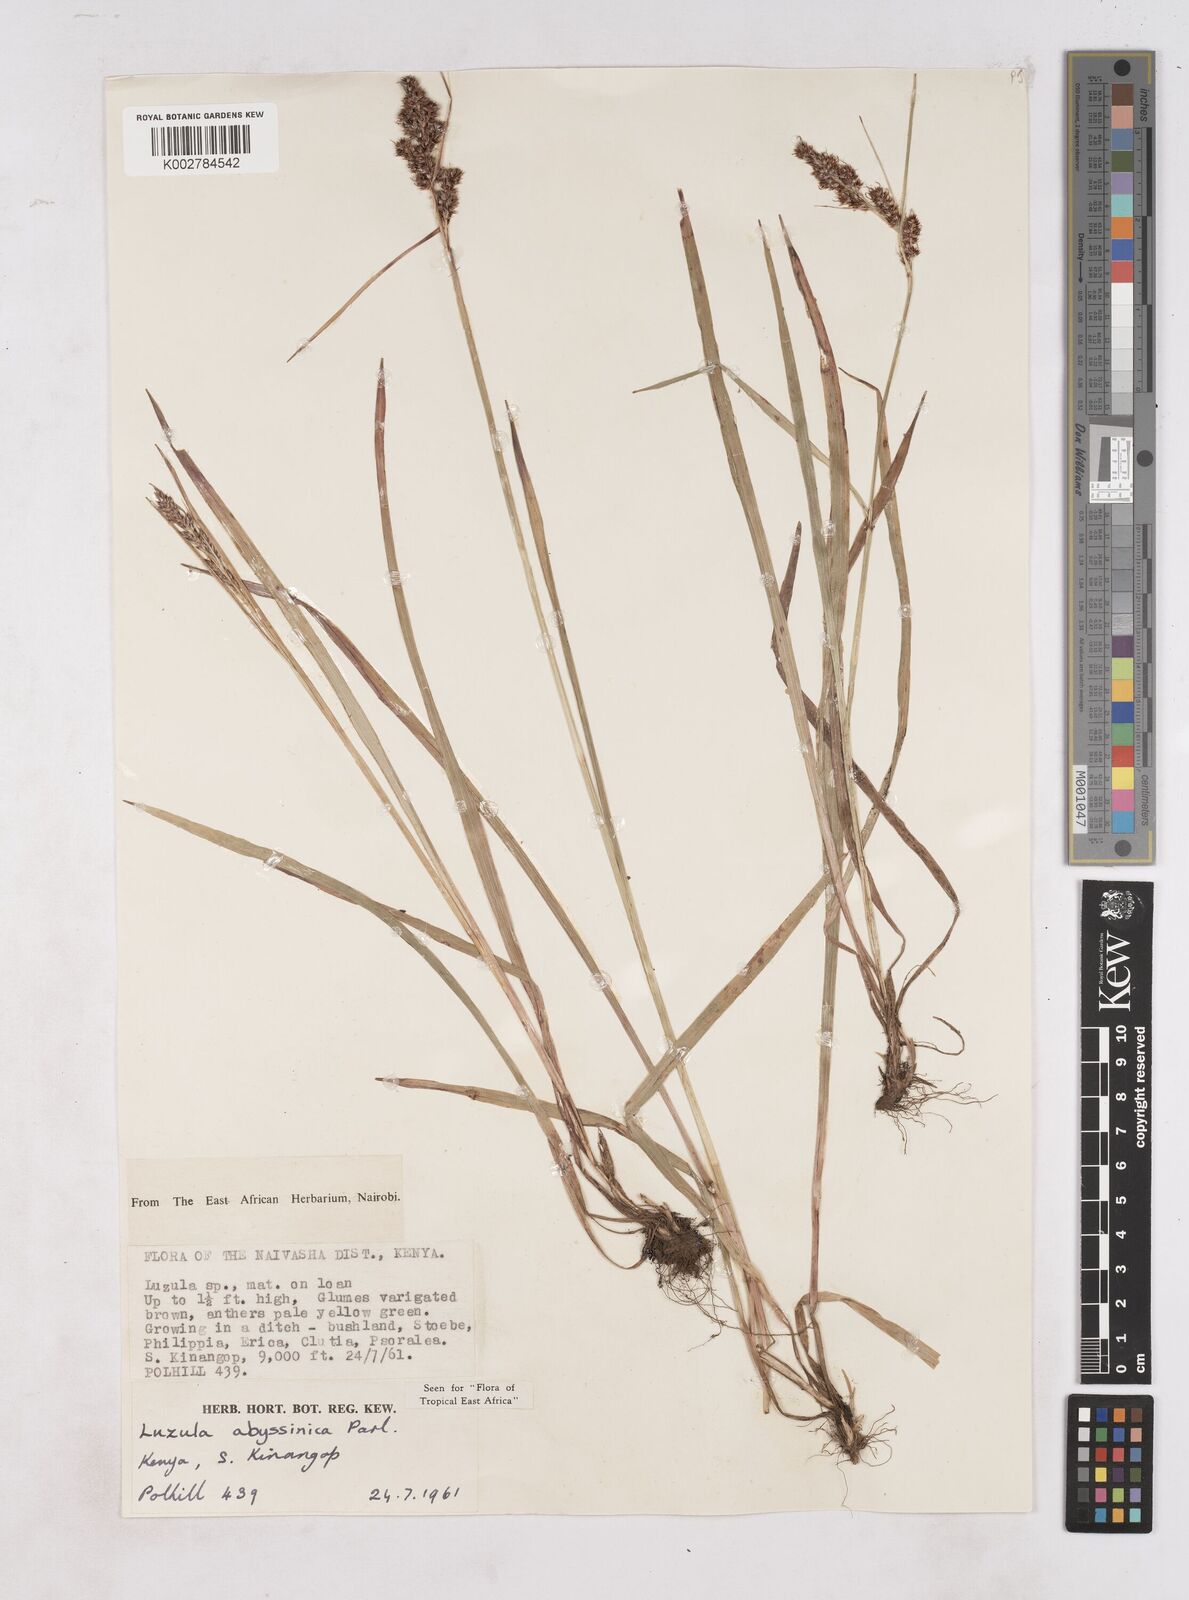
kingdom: Plantae
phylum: Tracheophyta
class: Liliopsida
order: Poales
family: Juncaceae
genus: Luzula
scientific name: Luzula abyssinica
